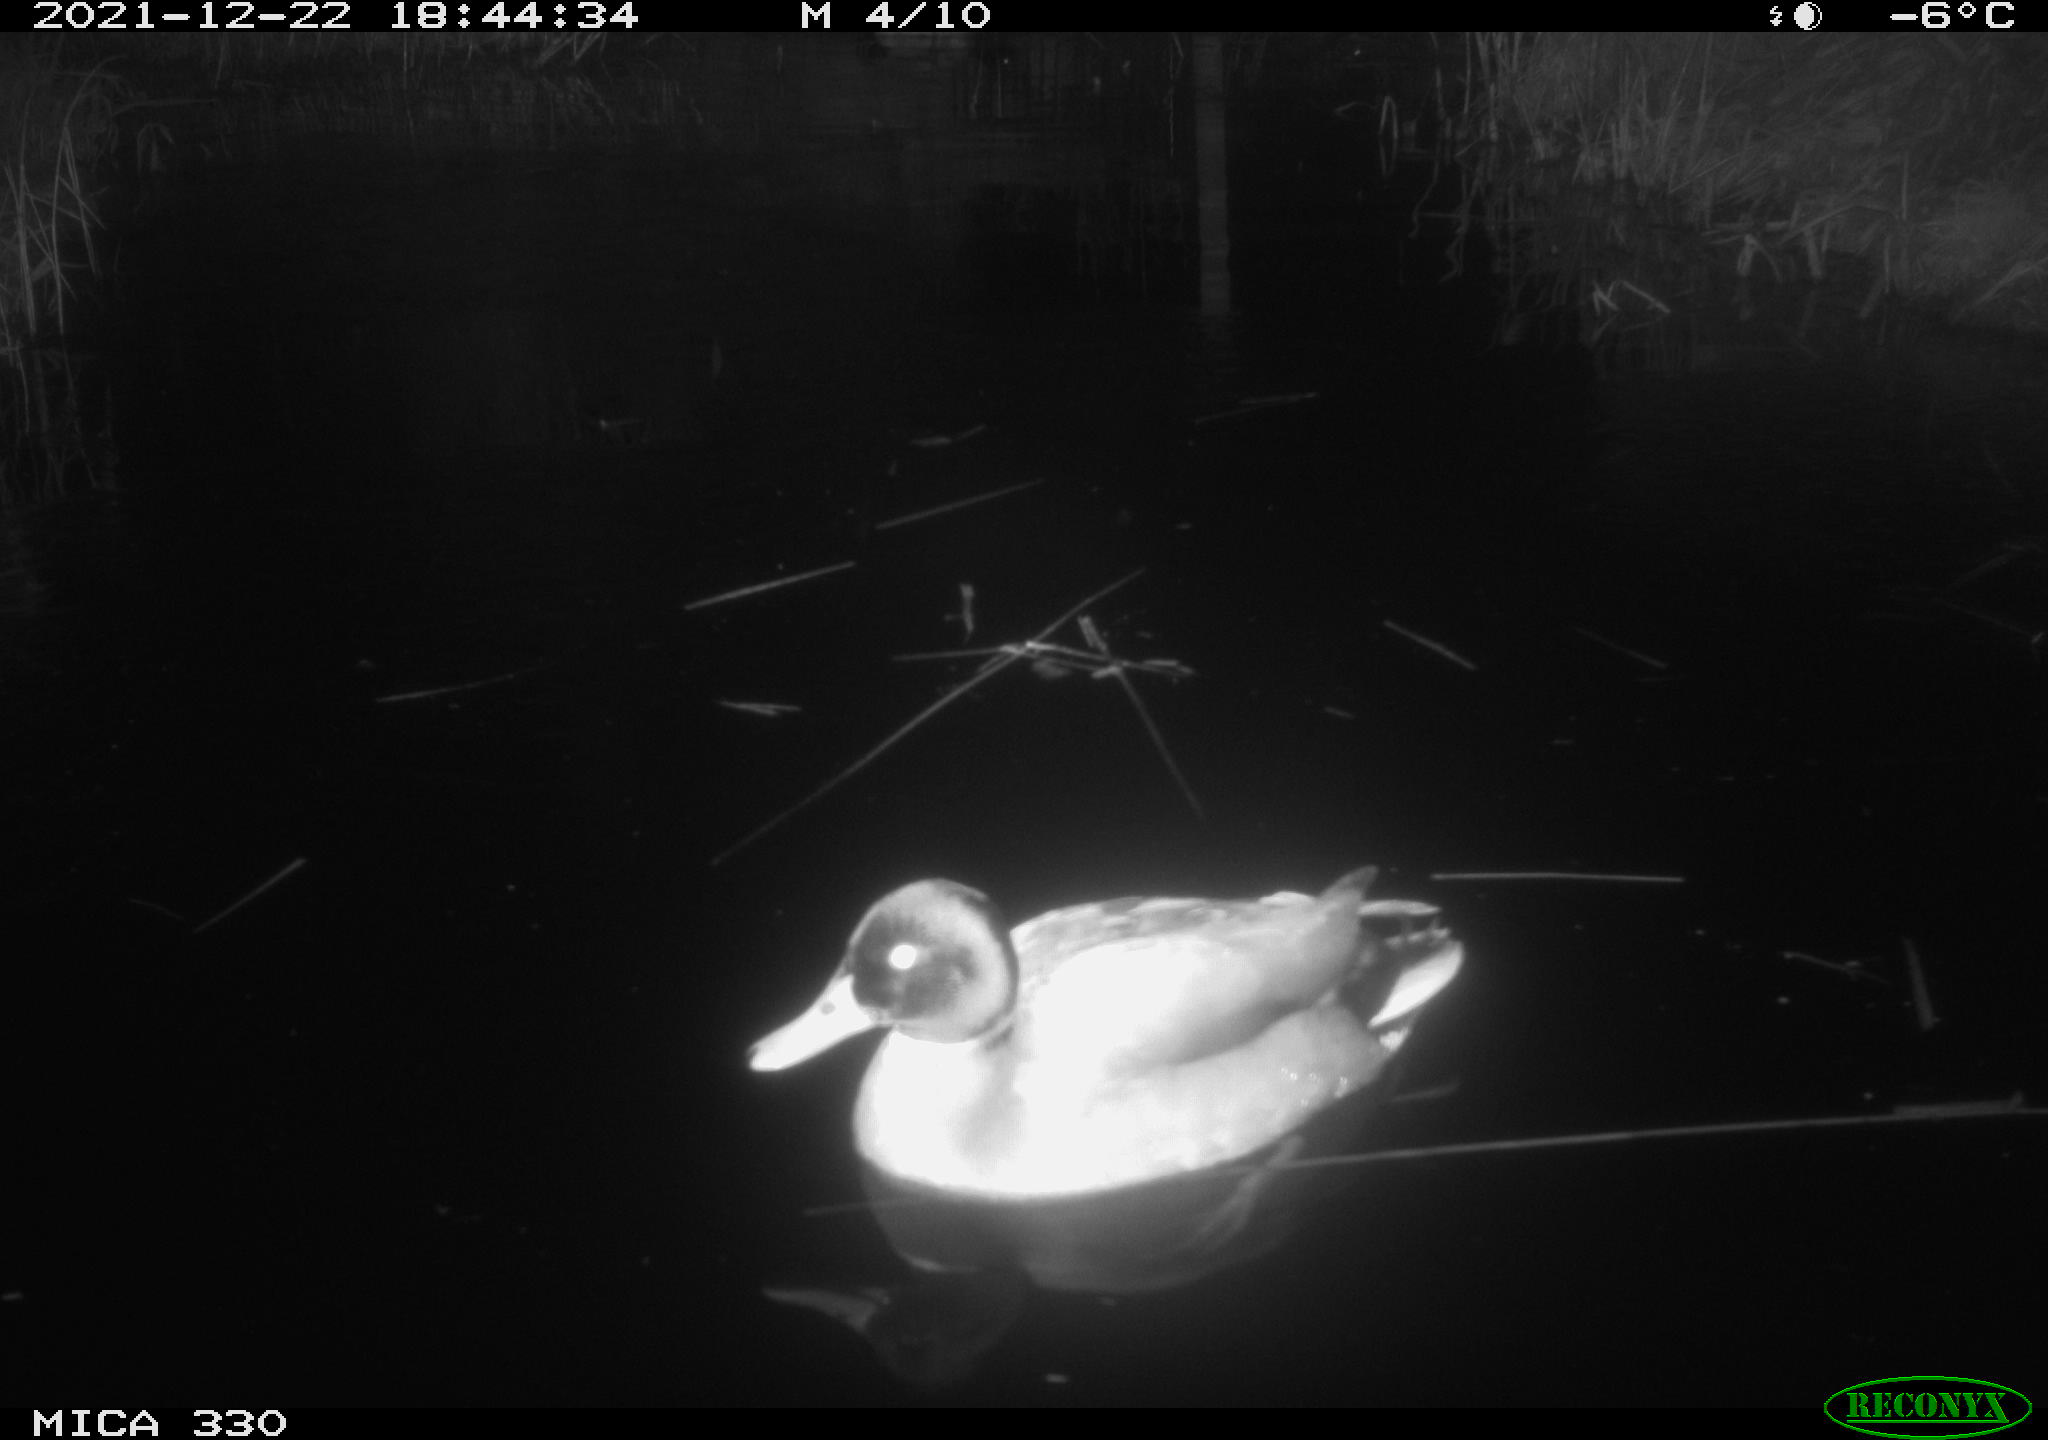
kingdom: Animalia
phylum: Chordata
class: Aves
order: Anseriformes
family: Anatidae
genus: Anas
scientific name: Anas platyrhynchos
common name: Mallard
